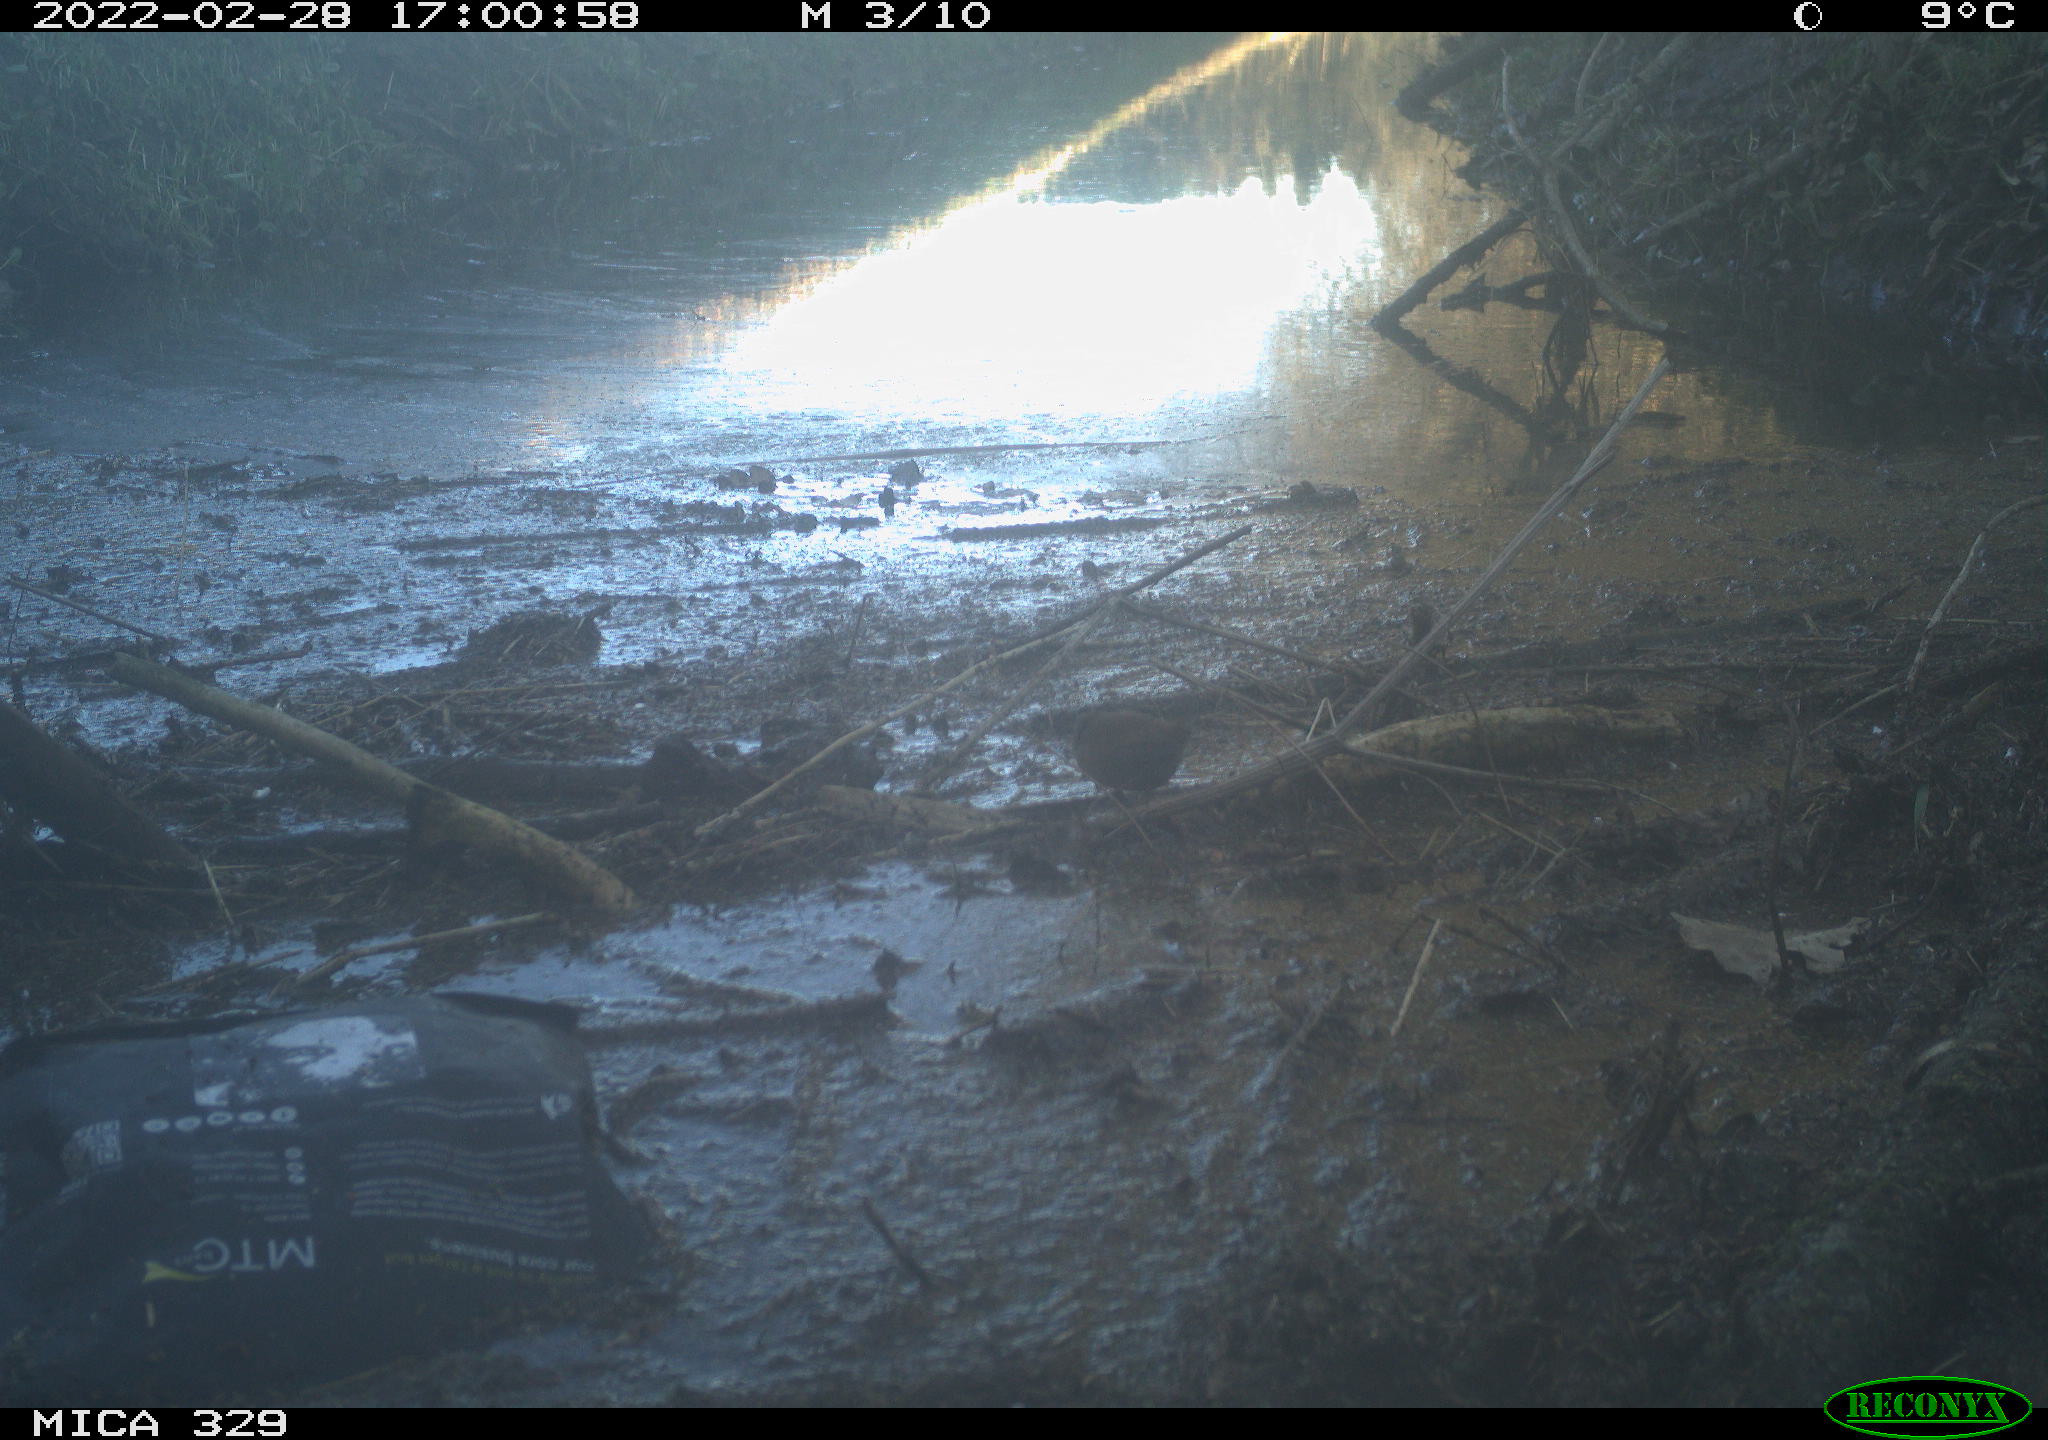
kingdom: Animalia
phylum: Chordata
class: Aves
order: Passeriformes
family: Turdidae
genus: Turdus
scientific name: Turdus merula
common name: Common blackbird
